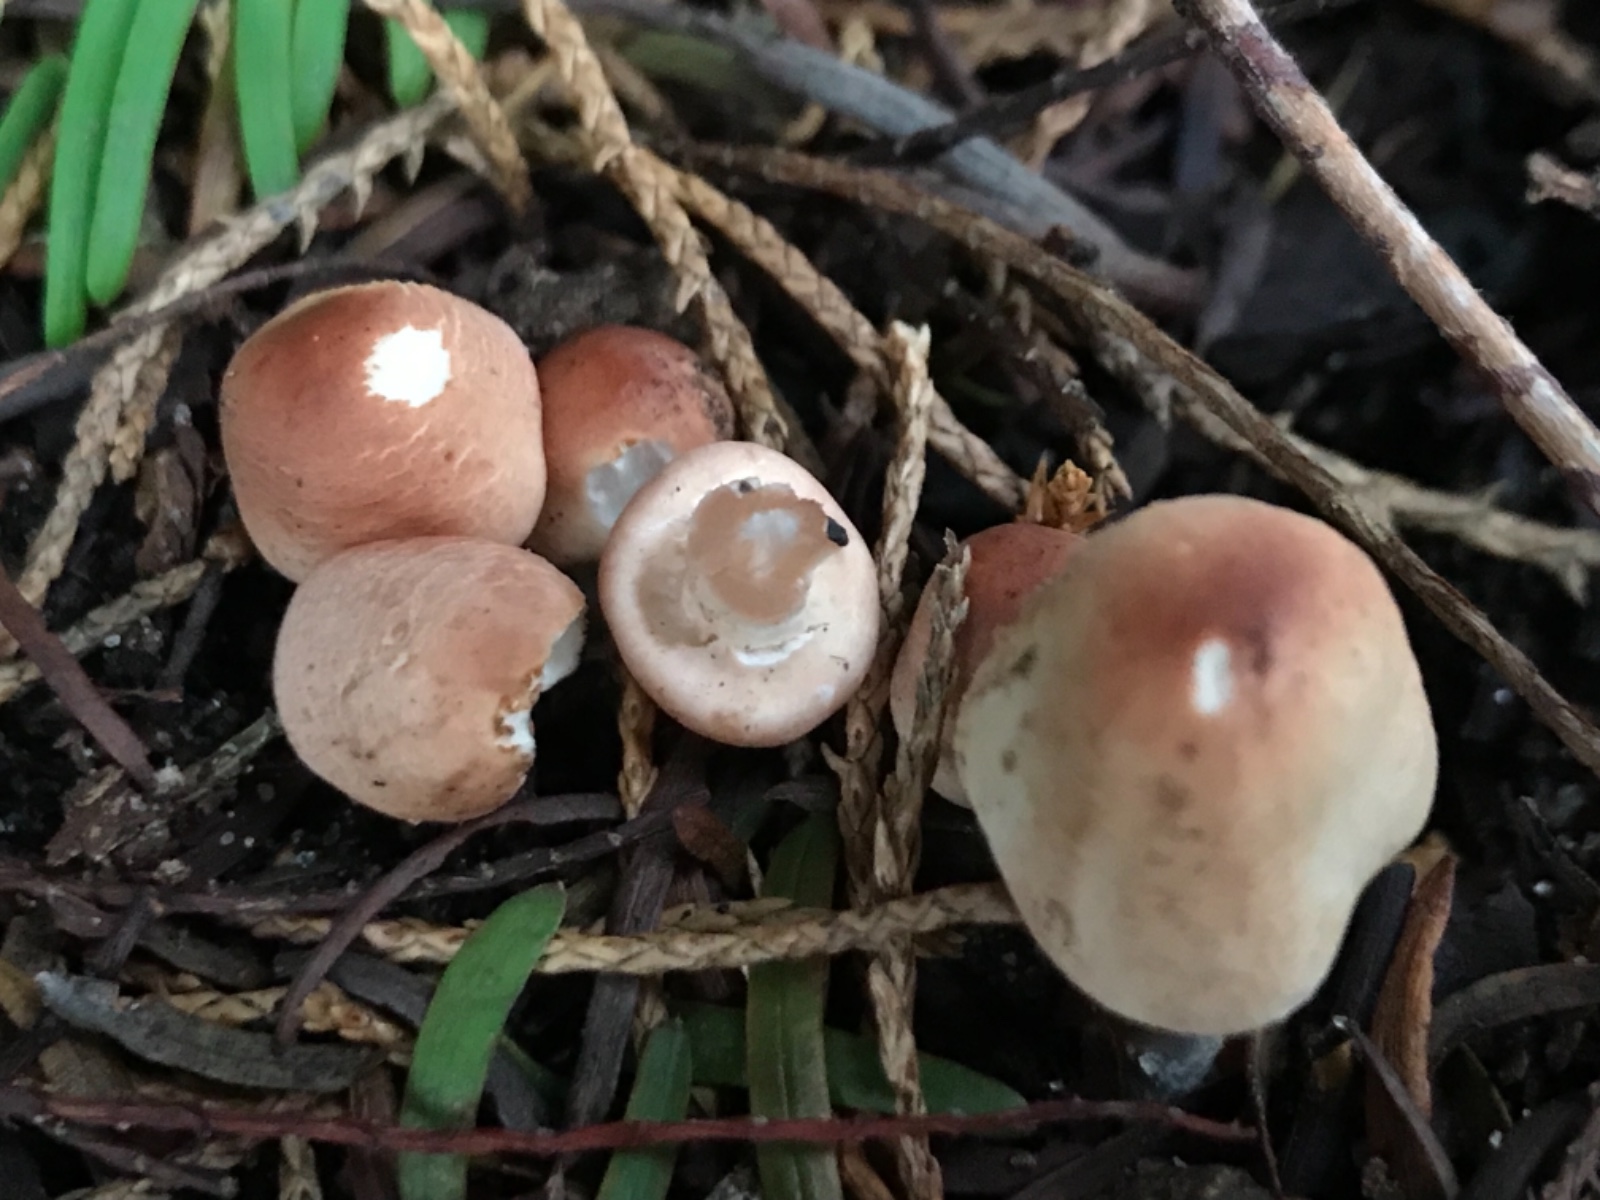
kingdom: Fungi
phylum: Basidiomycota
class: Agaricomycetes
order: Agaricales
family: Agaricaceae
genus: Lepiota
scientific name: Lepiota cristata
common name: stinkende parasolhat
